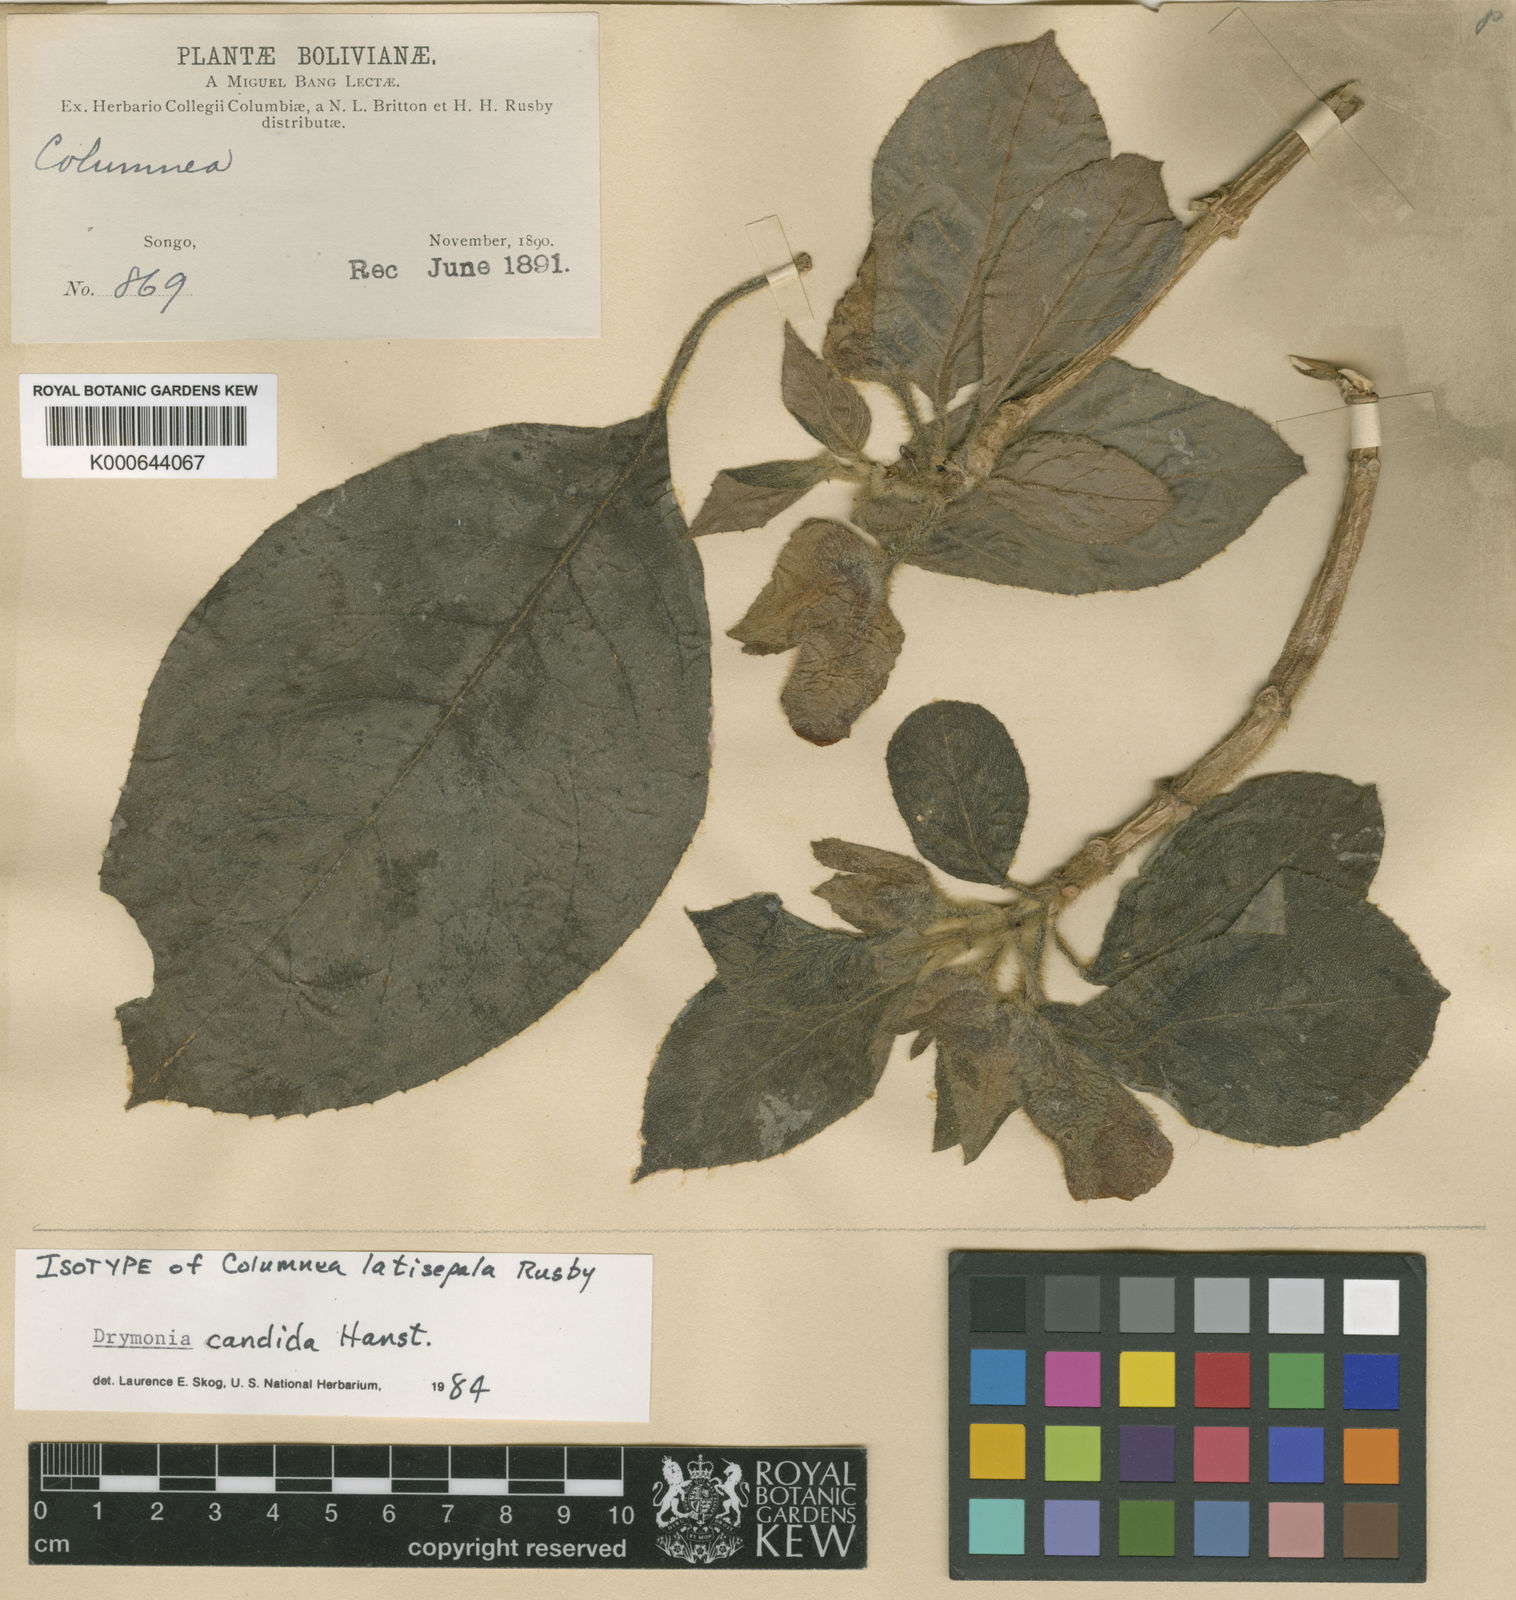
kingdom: Plantae
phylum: Tracheophyta
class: Magnoliopsida
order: Lamiales
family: Gesneriaceae
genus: Columnea
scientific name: Columnea
